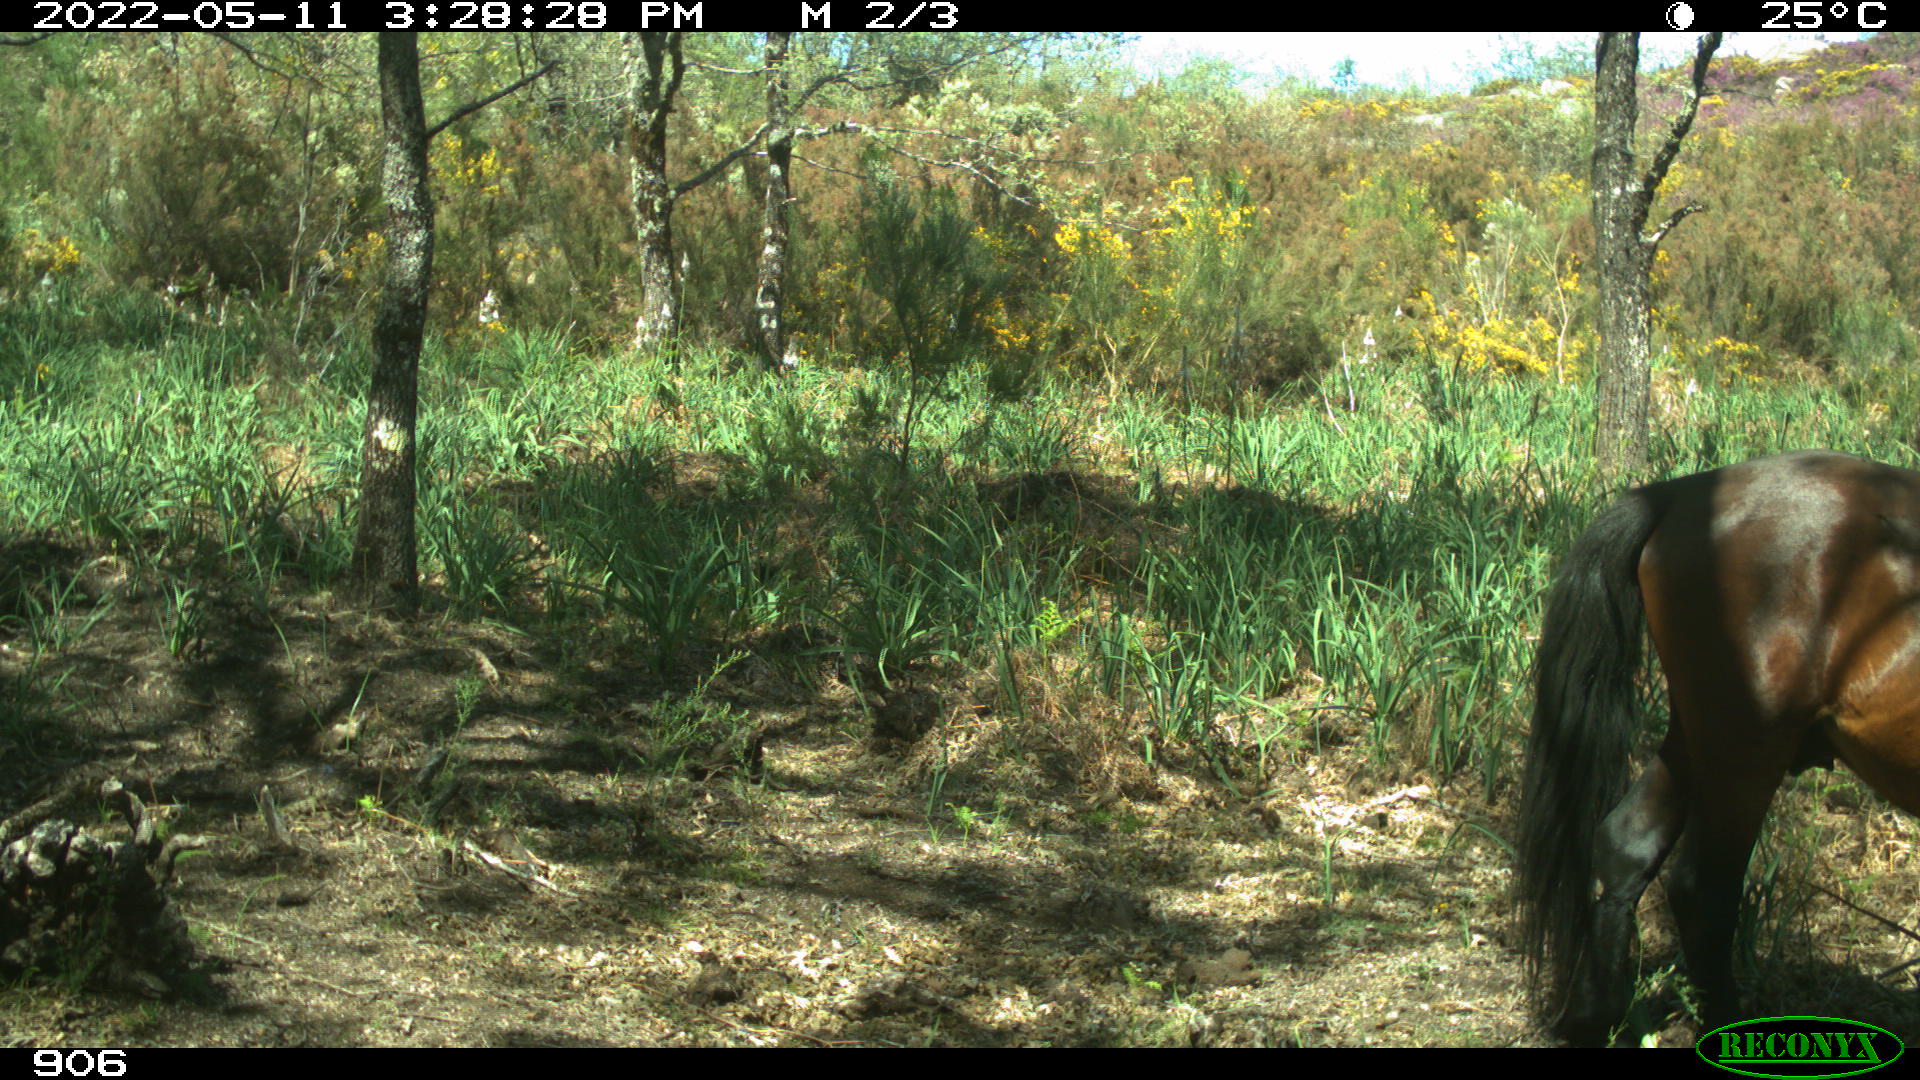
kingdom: Animalia
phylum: Chordata
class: Mammalia
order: Perissodactyla
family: Equidae
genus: Equus
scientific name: Equus caballus
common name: Horse
